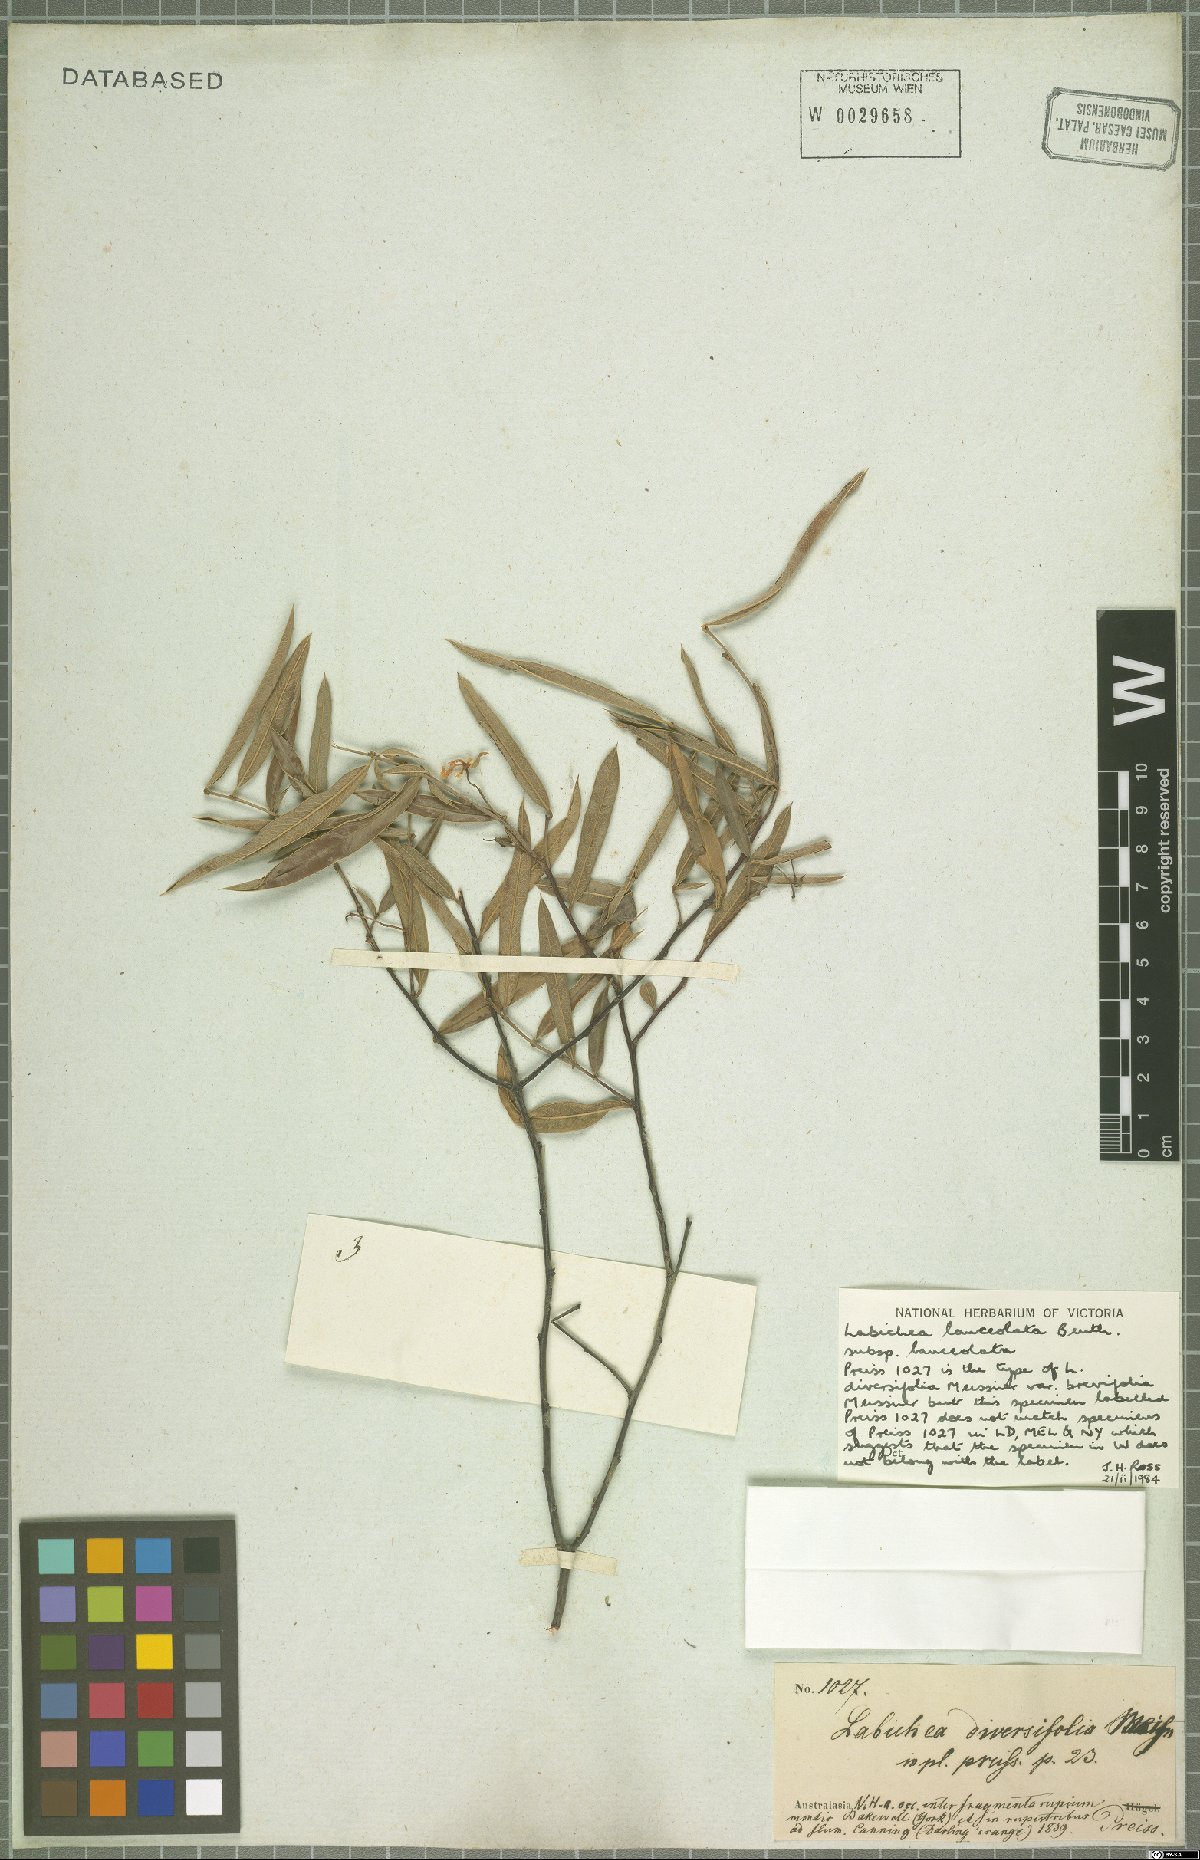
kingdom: Plantae
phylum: Tracheophyta
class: Magnoliopsida
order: Fabales
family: Fabaceae
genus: Labichea
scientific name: Labichea lanceolata
